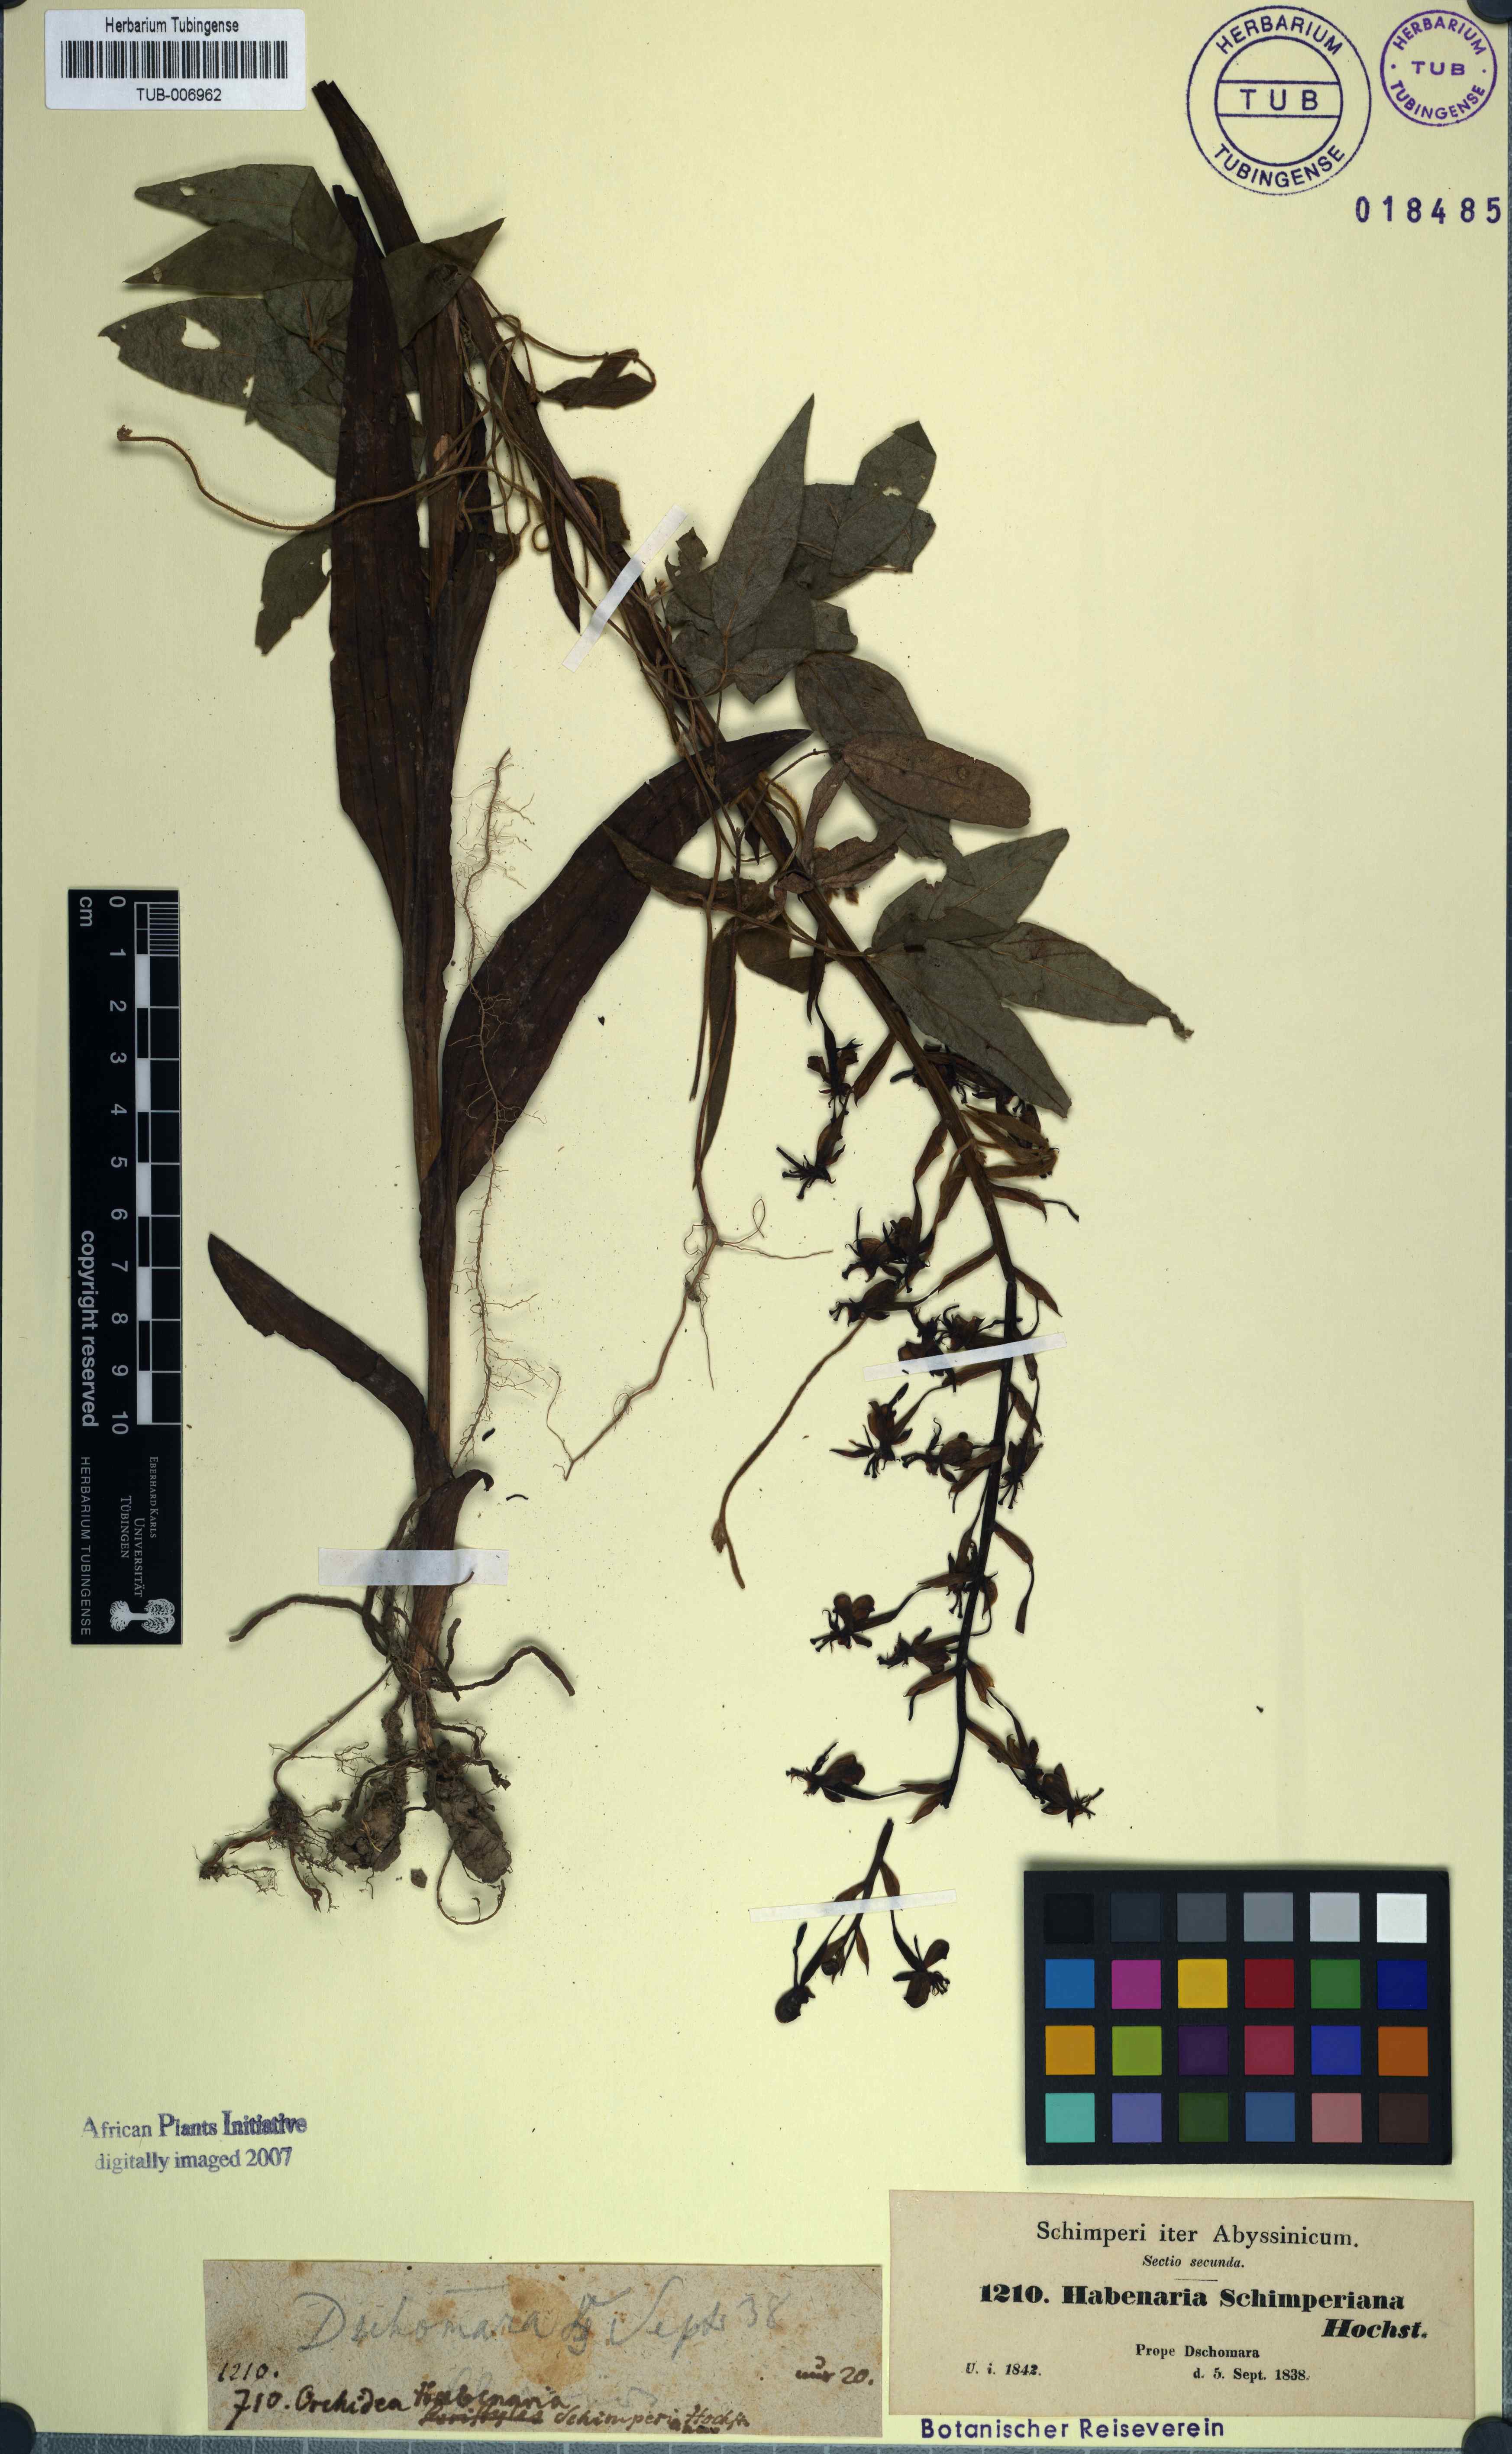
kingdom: Plantae
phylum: Tracheophyta
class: Liliopsida
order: Asparagales
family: Orchidaceae
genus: Habenaria
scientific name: Habenaria schimperiana
